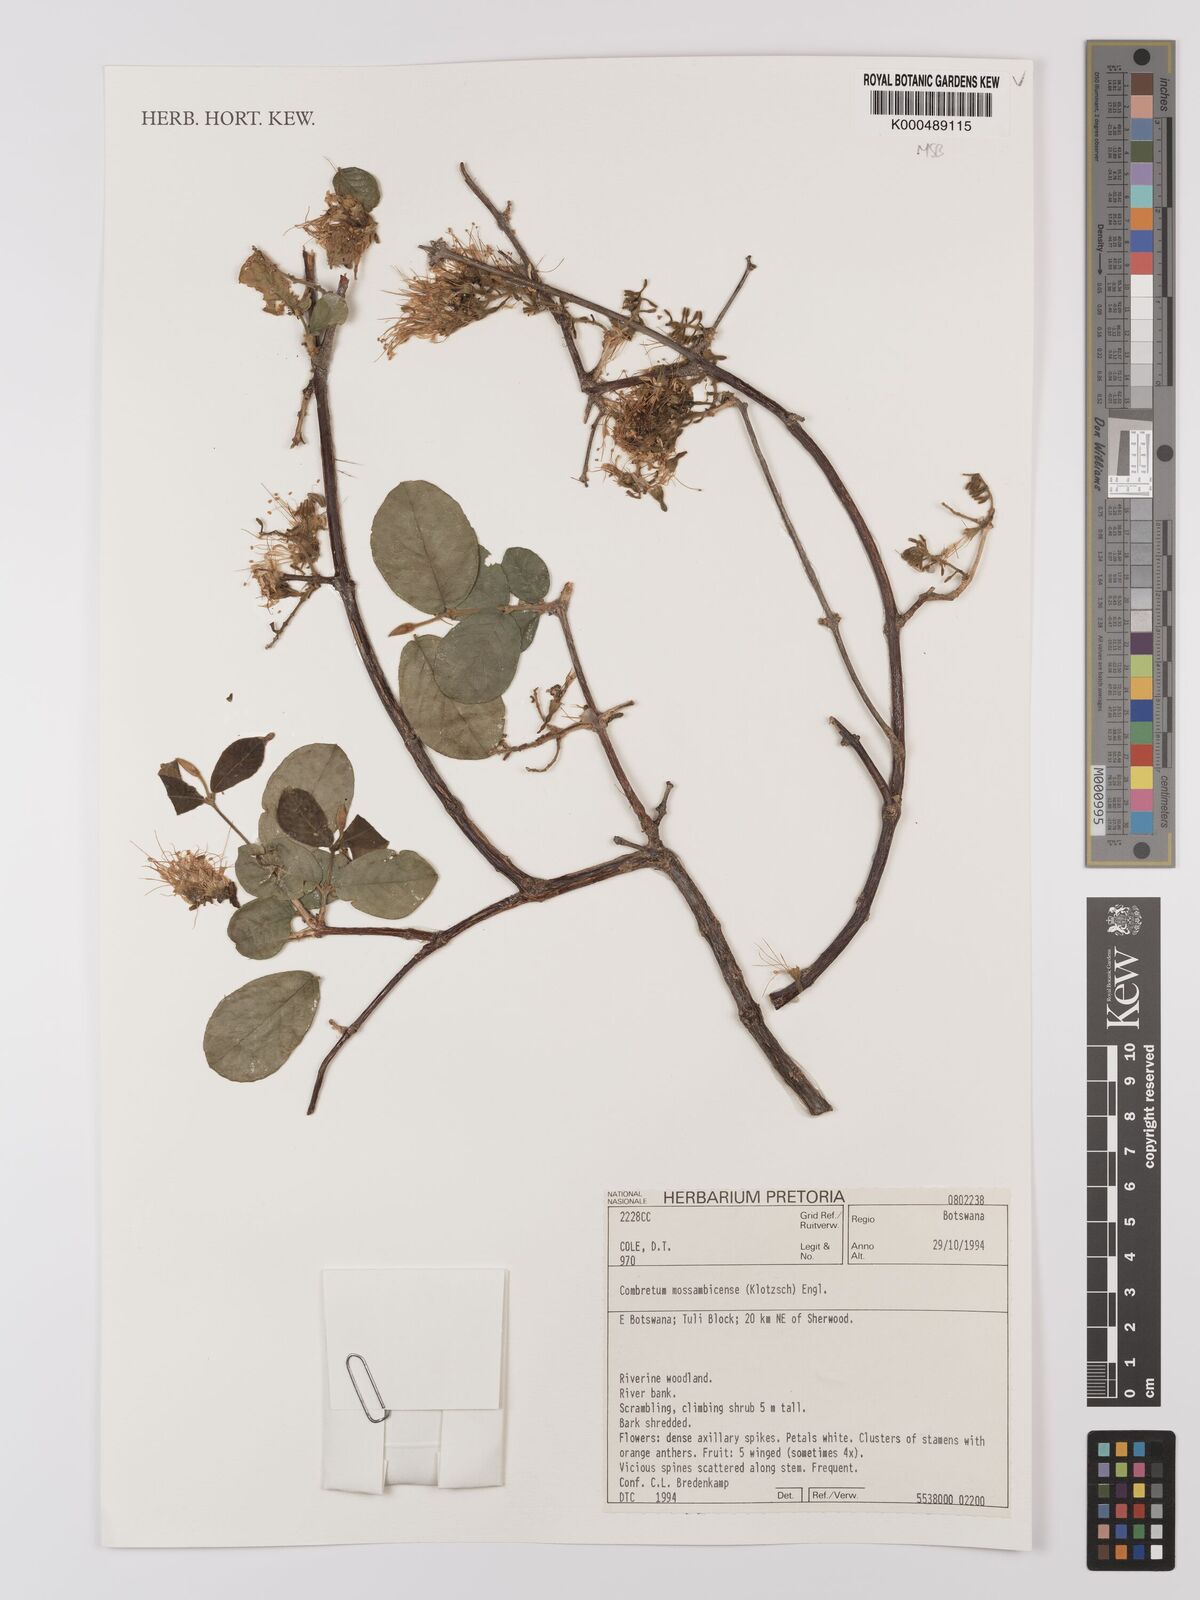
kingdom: Plantae
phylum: Tracheophyta
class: Magnoliopsida
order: Myrtales
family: Combretaceae
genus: Combretum
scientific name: Combretum mossambicense
